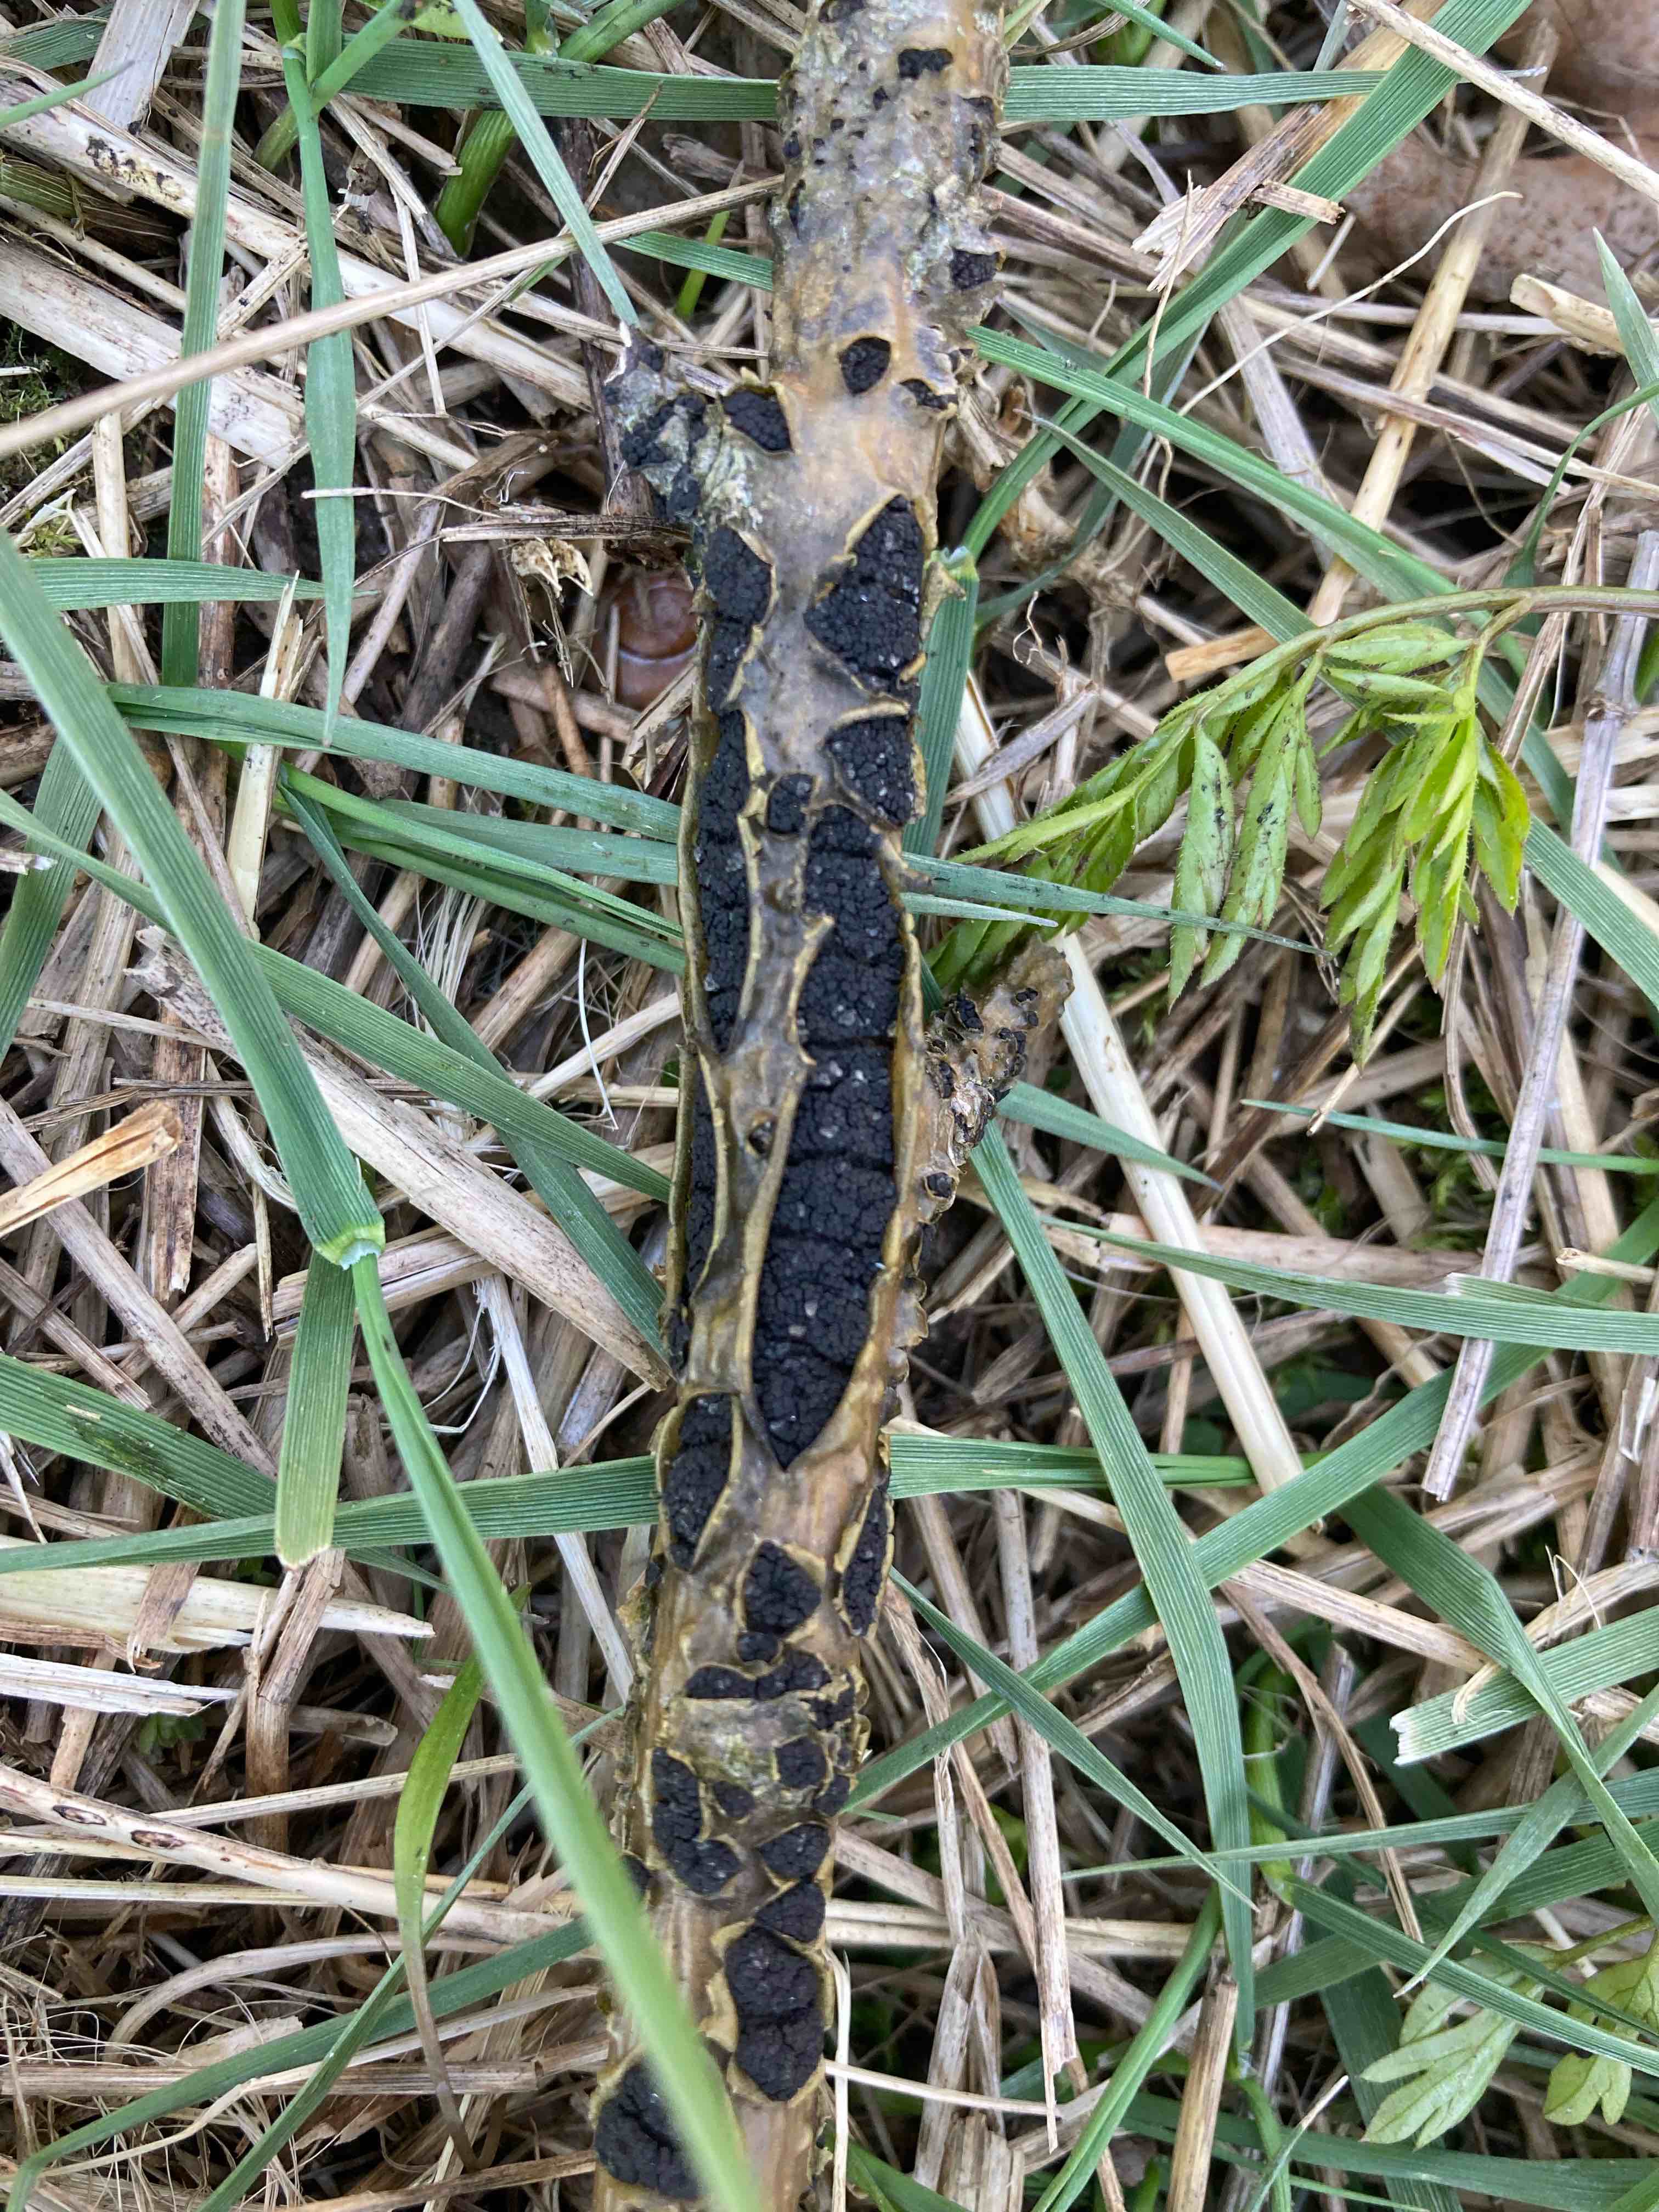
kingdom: Fungi
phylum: Ascomycota
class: Dothideomycetes
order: Pleosporales
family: Camarosporidiellaceae
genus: Camarosporidiella
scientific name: Camarosporidiella laburni
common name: guldregn-tykbær
